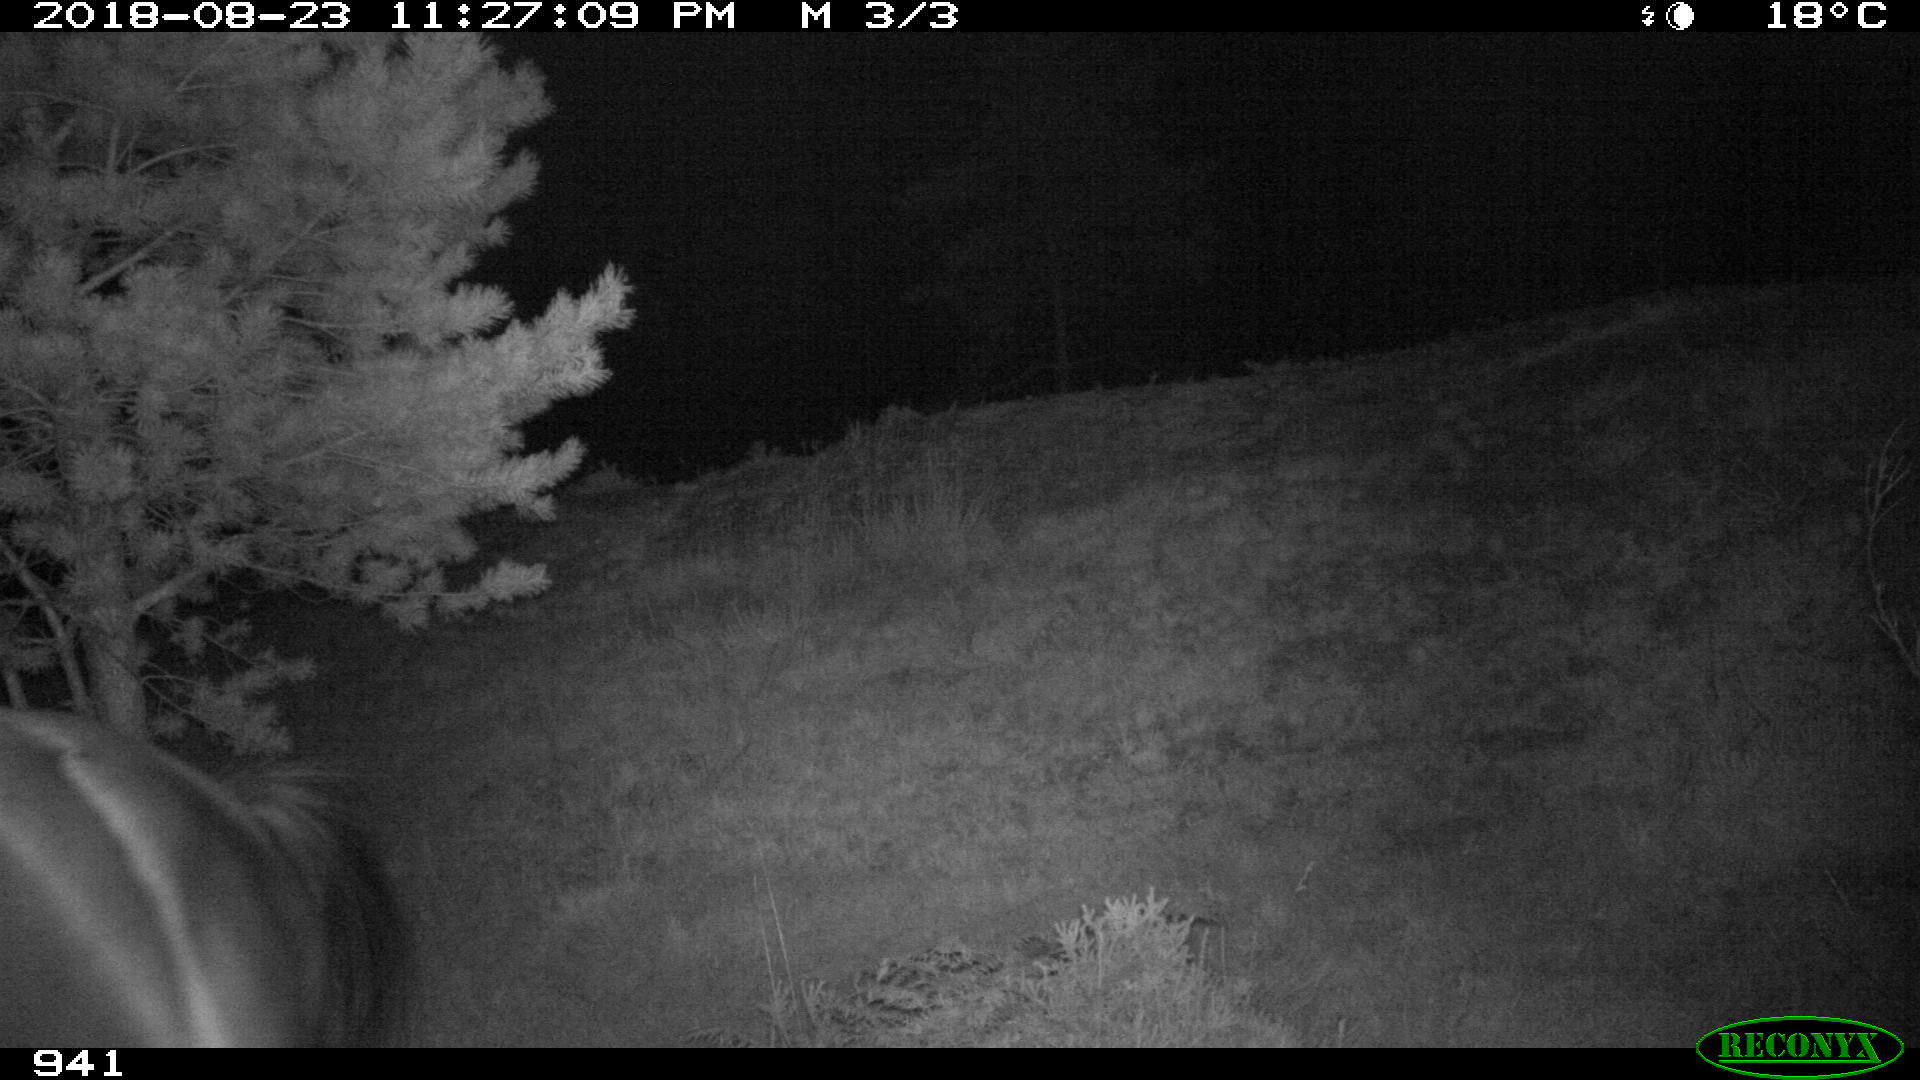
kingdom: Animalia
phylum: Chordata
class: Mammalia
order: Perissodactyla
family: Equidae
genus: Equus
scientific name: Equus caballus
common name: Horse
